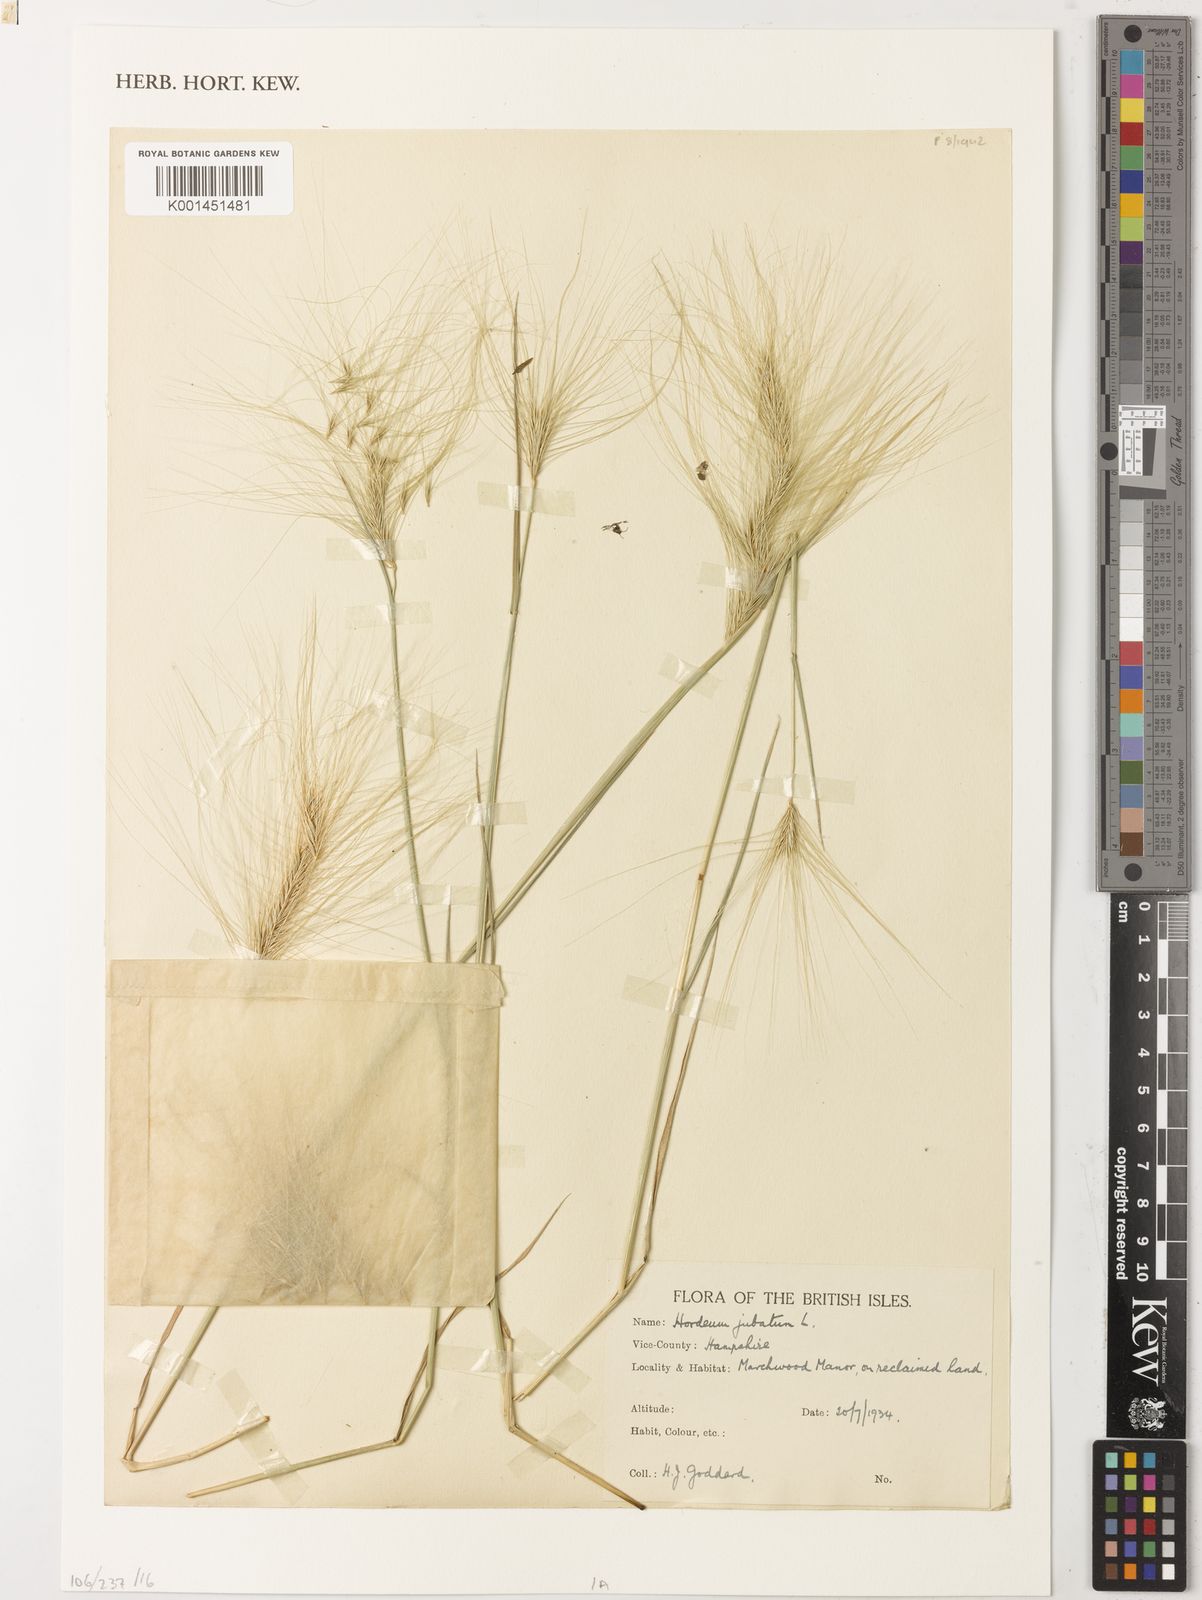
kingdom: Plantae
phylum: Tracheophyta
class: Liliopsida
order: Poales
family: Poaceae
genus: Hordeum
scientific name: Hordeum jubatum
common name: Foxtail barley
